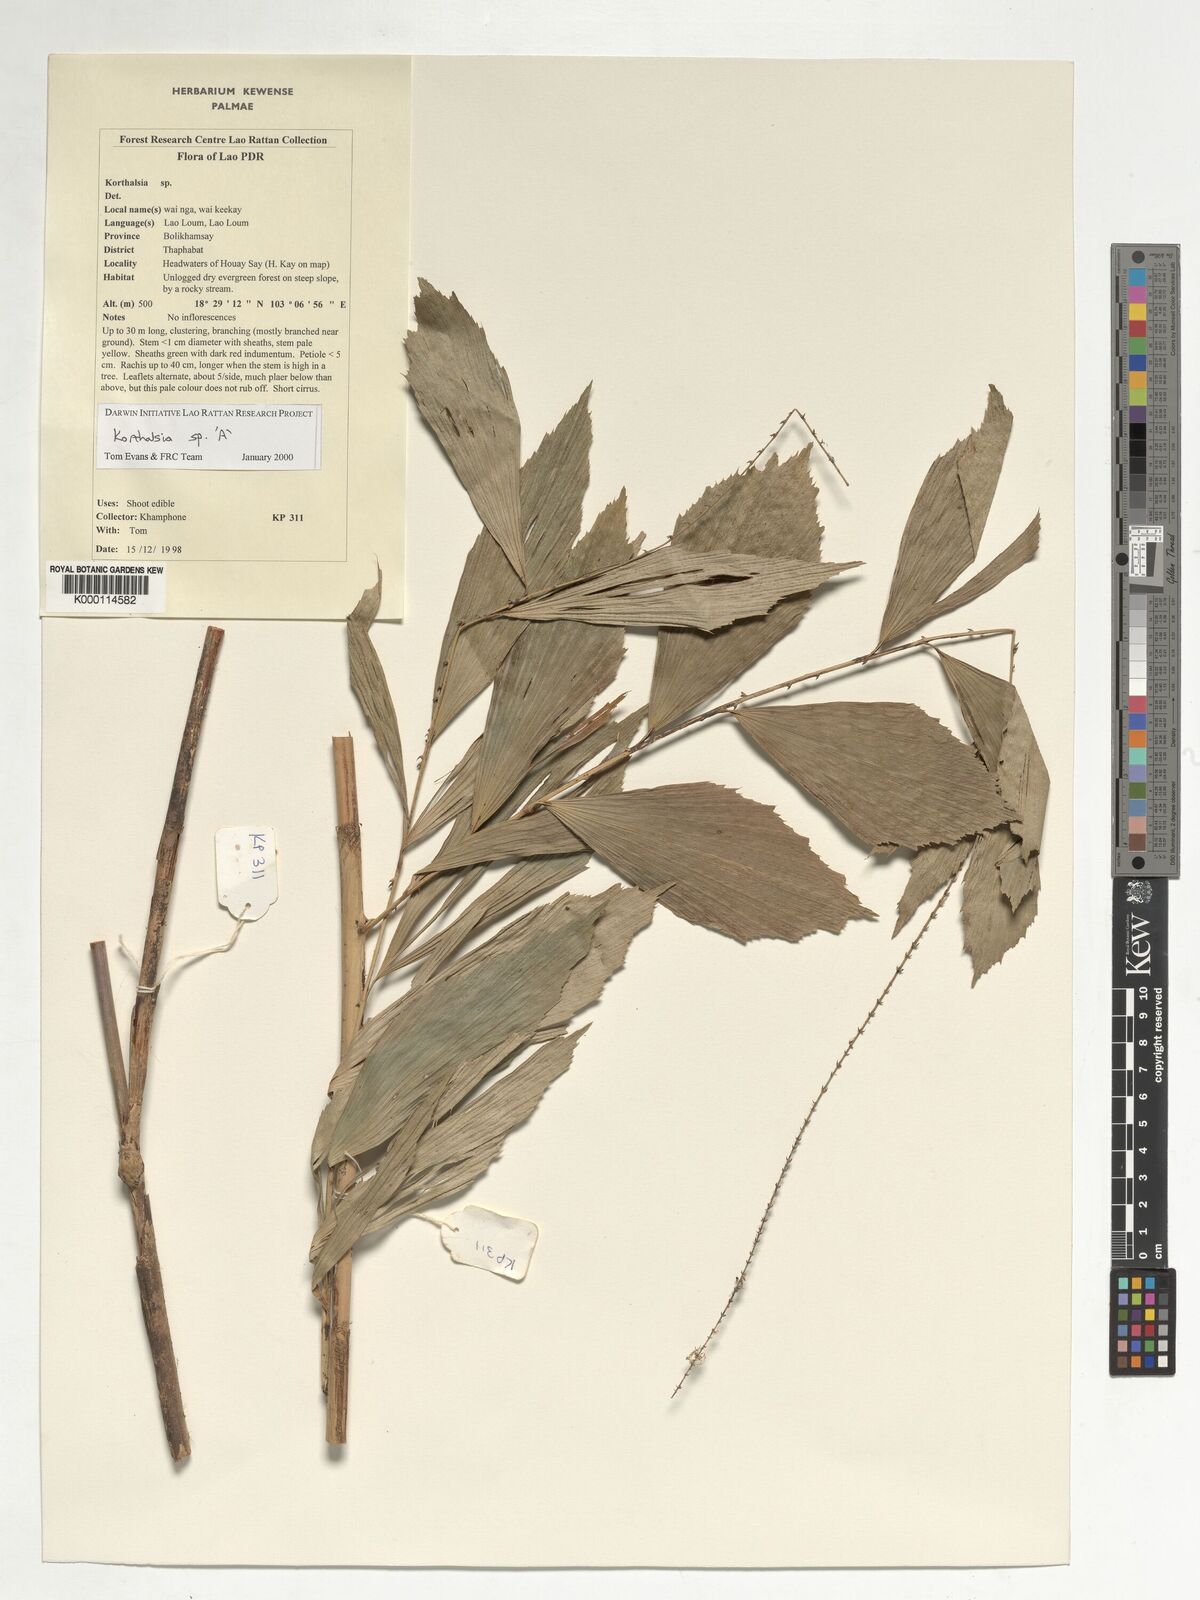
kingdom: Plantae
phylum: Tracheophyta
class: Liliopsida
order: Arecales
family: Arecaceae
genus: Korthalsia
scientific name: Korthalsia
